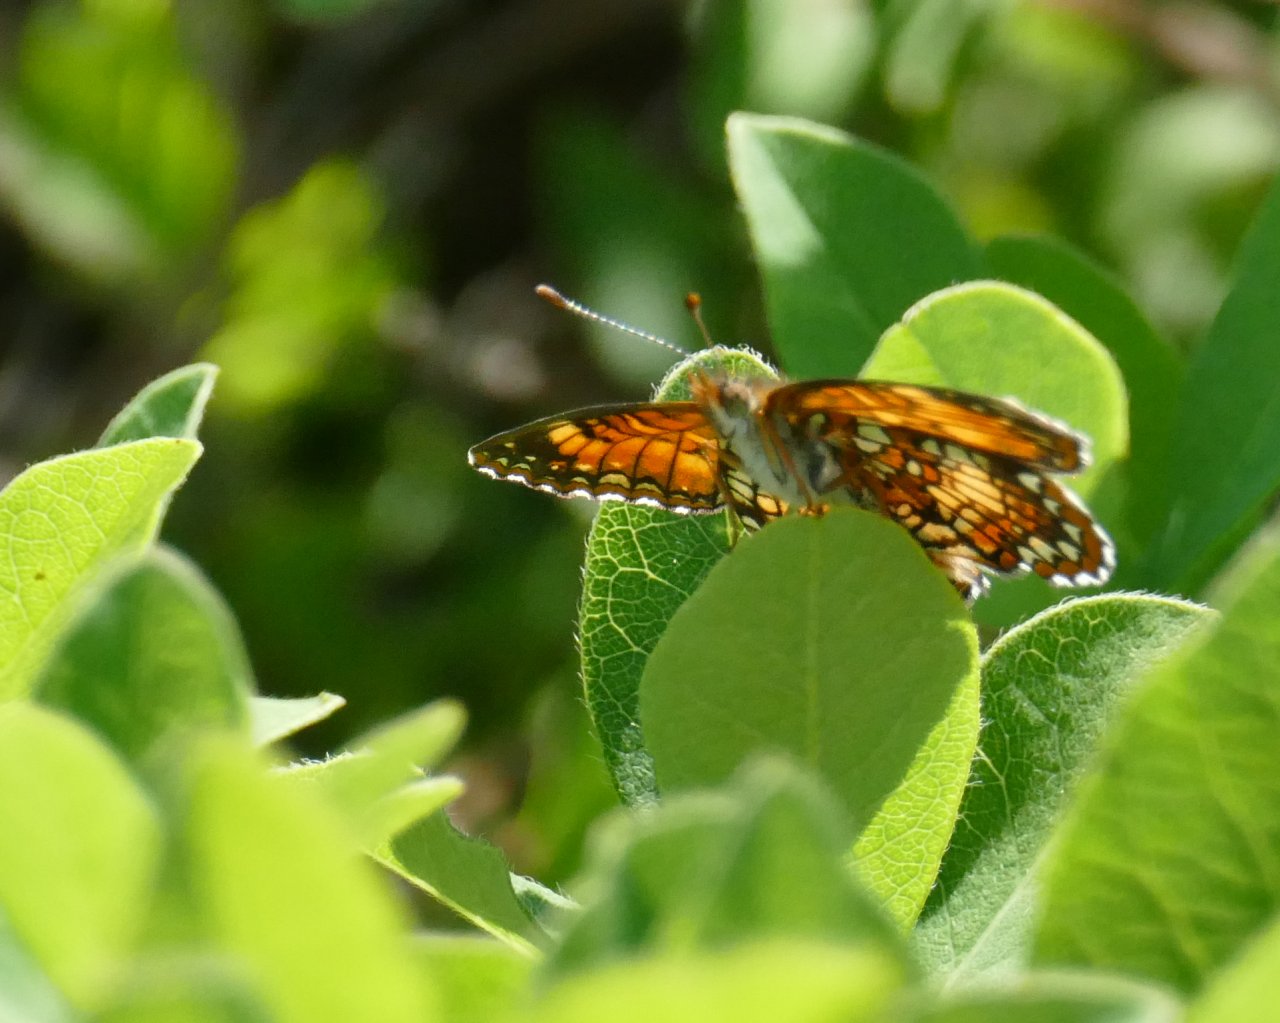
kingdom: Animalia
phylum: Arthropoda
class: Insecta
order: Lepidoptera
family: Nymphalidae
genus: Chlosyne
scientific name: Chlosyne harrisii
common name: Harris's Checkerspot
